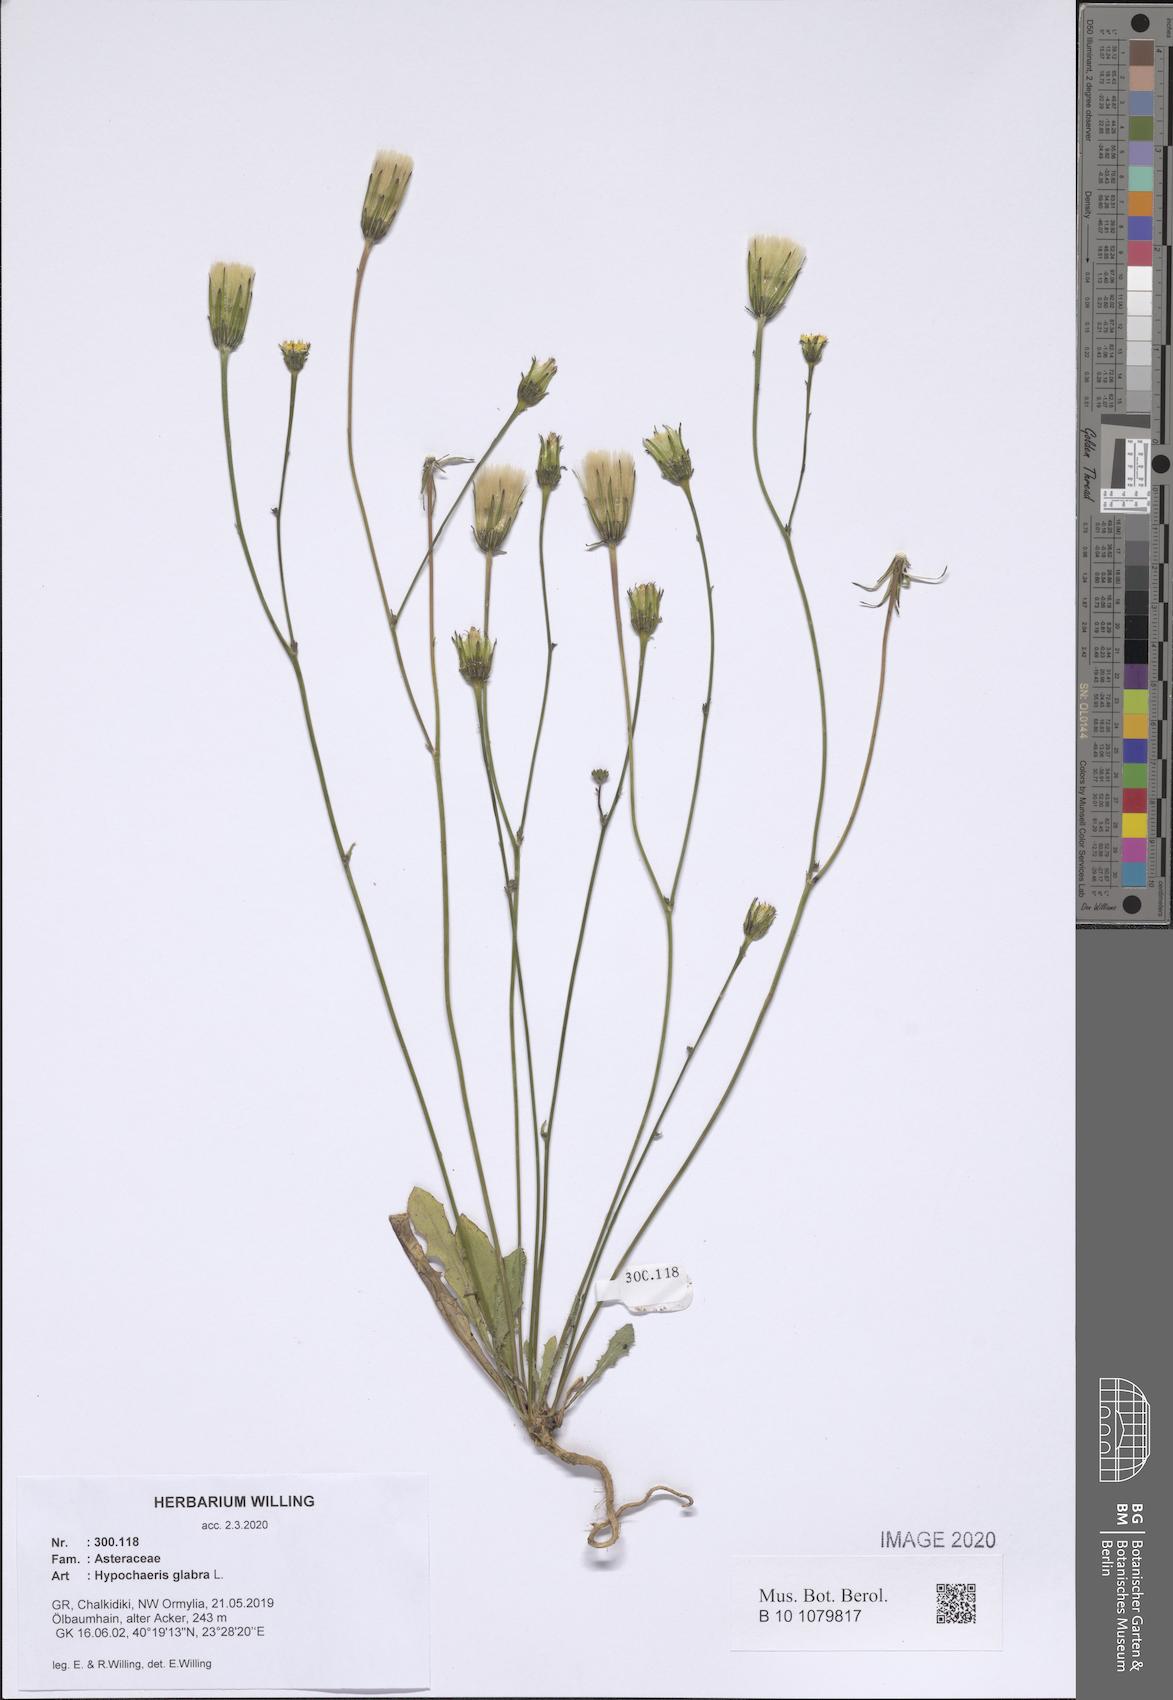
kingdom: Plantae
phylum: Tracheophyta
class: Magnoliopsida
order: Asterales
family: Asteraceae
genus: Hypochaeris
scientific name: Hypochaeris glabra
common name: Smooth catsear
